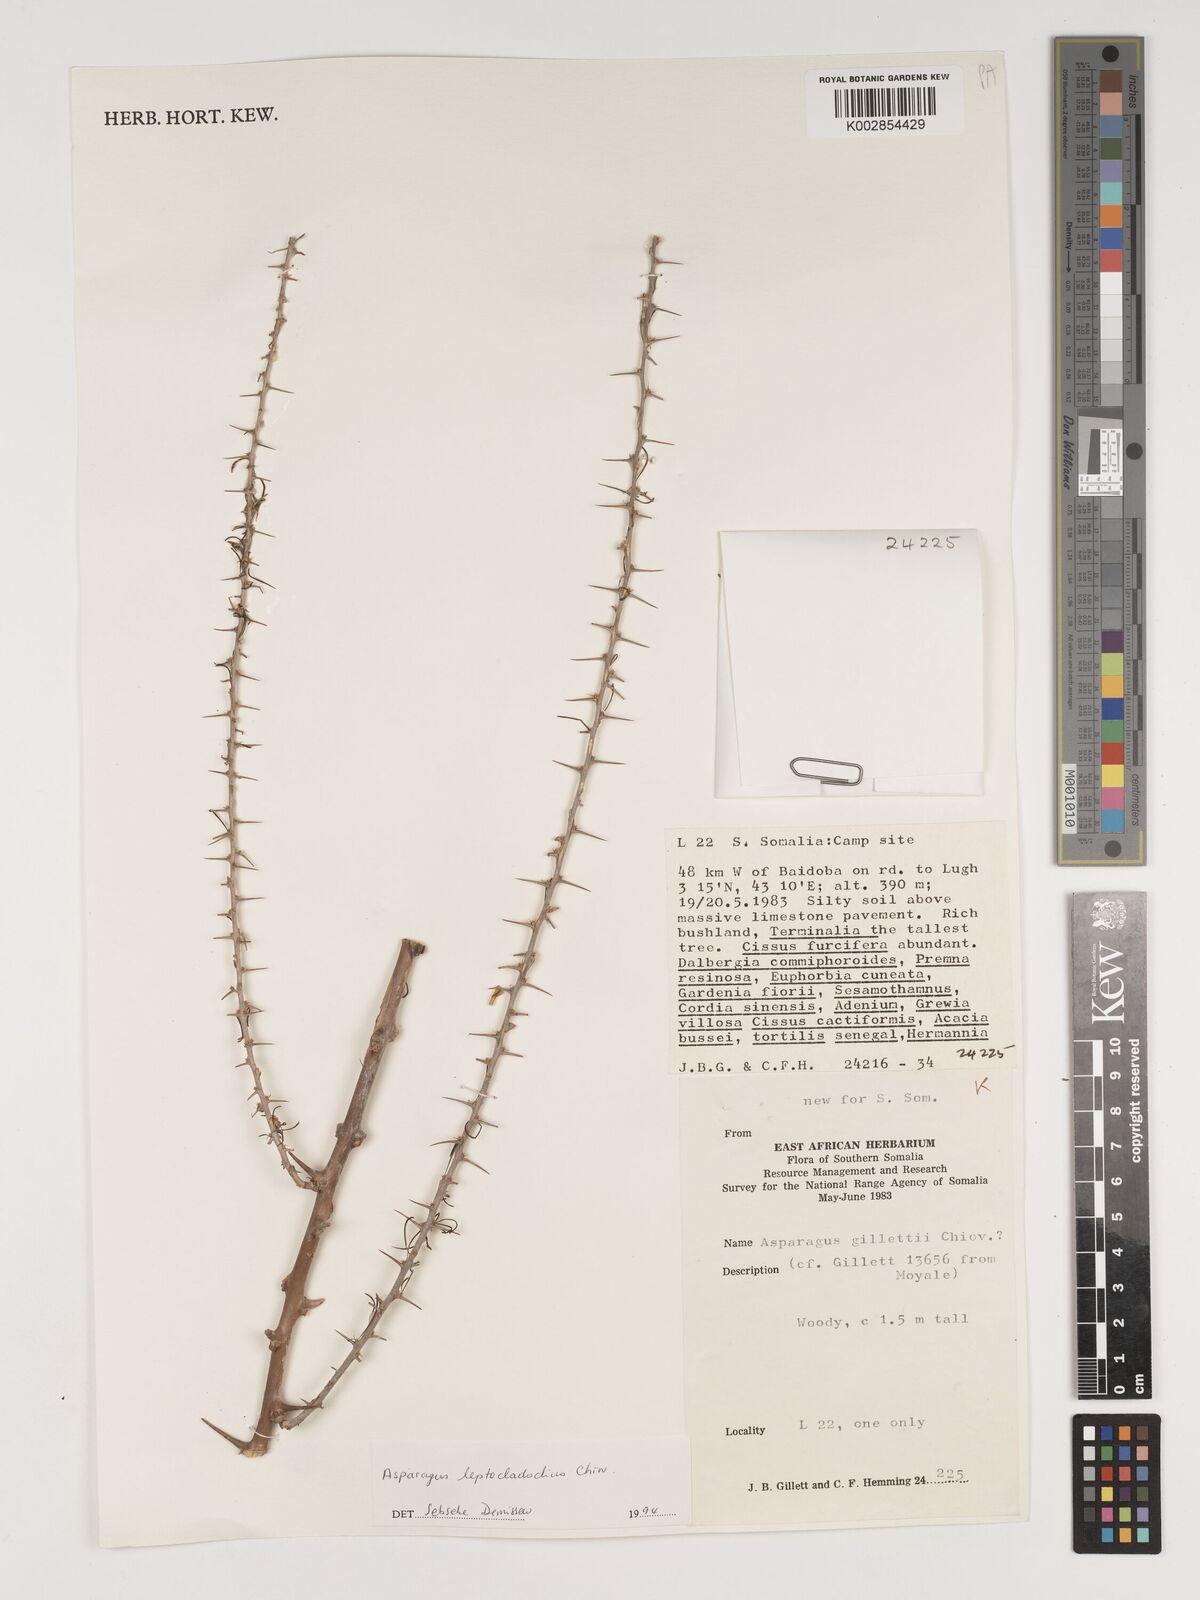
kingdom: Plantae
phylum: Tracheophyta
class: Liliopsida
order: Asparagales
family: Asparagaceae
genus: Asparagus
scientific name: Asparagus leptocladodius
